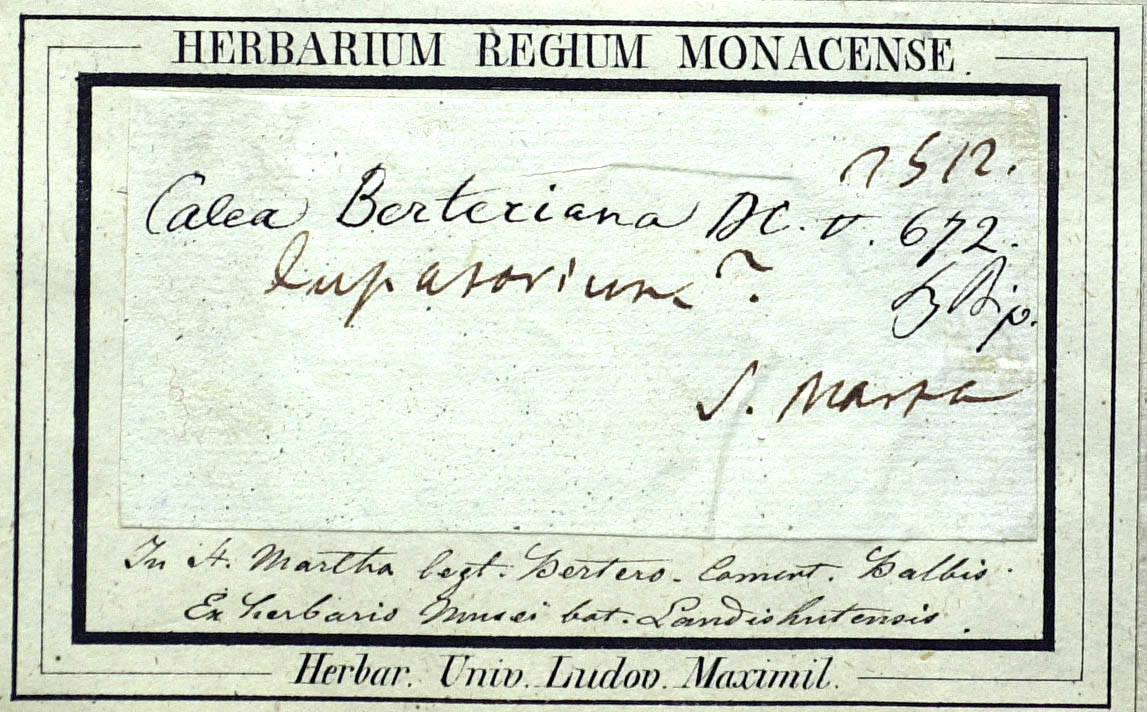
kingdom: Plantae
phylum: Tracheophyta
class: Magnoliopsida
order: Asterales
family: Asteraceae
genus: Calea
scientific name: Calea berteriana
